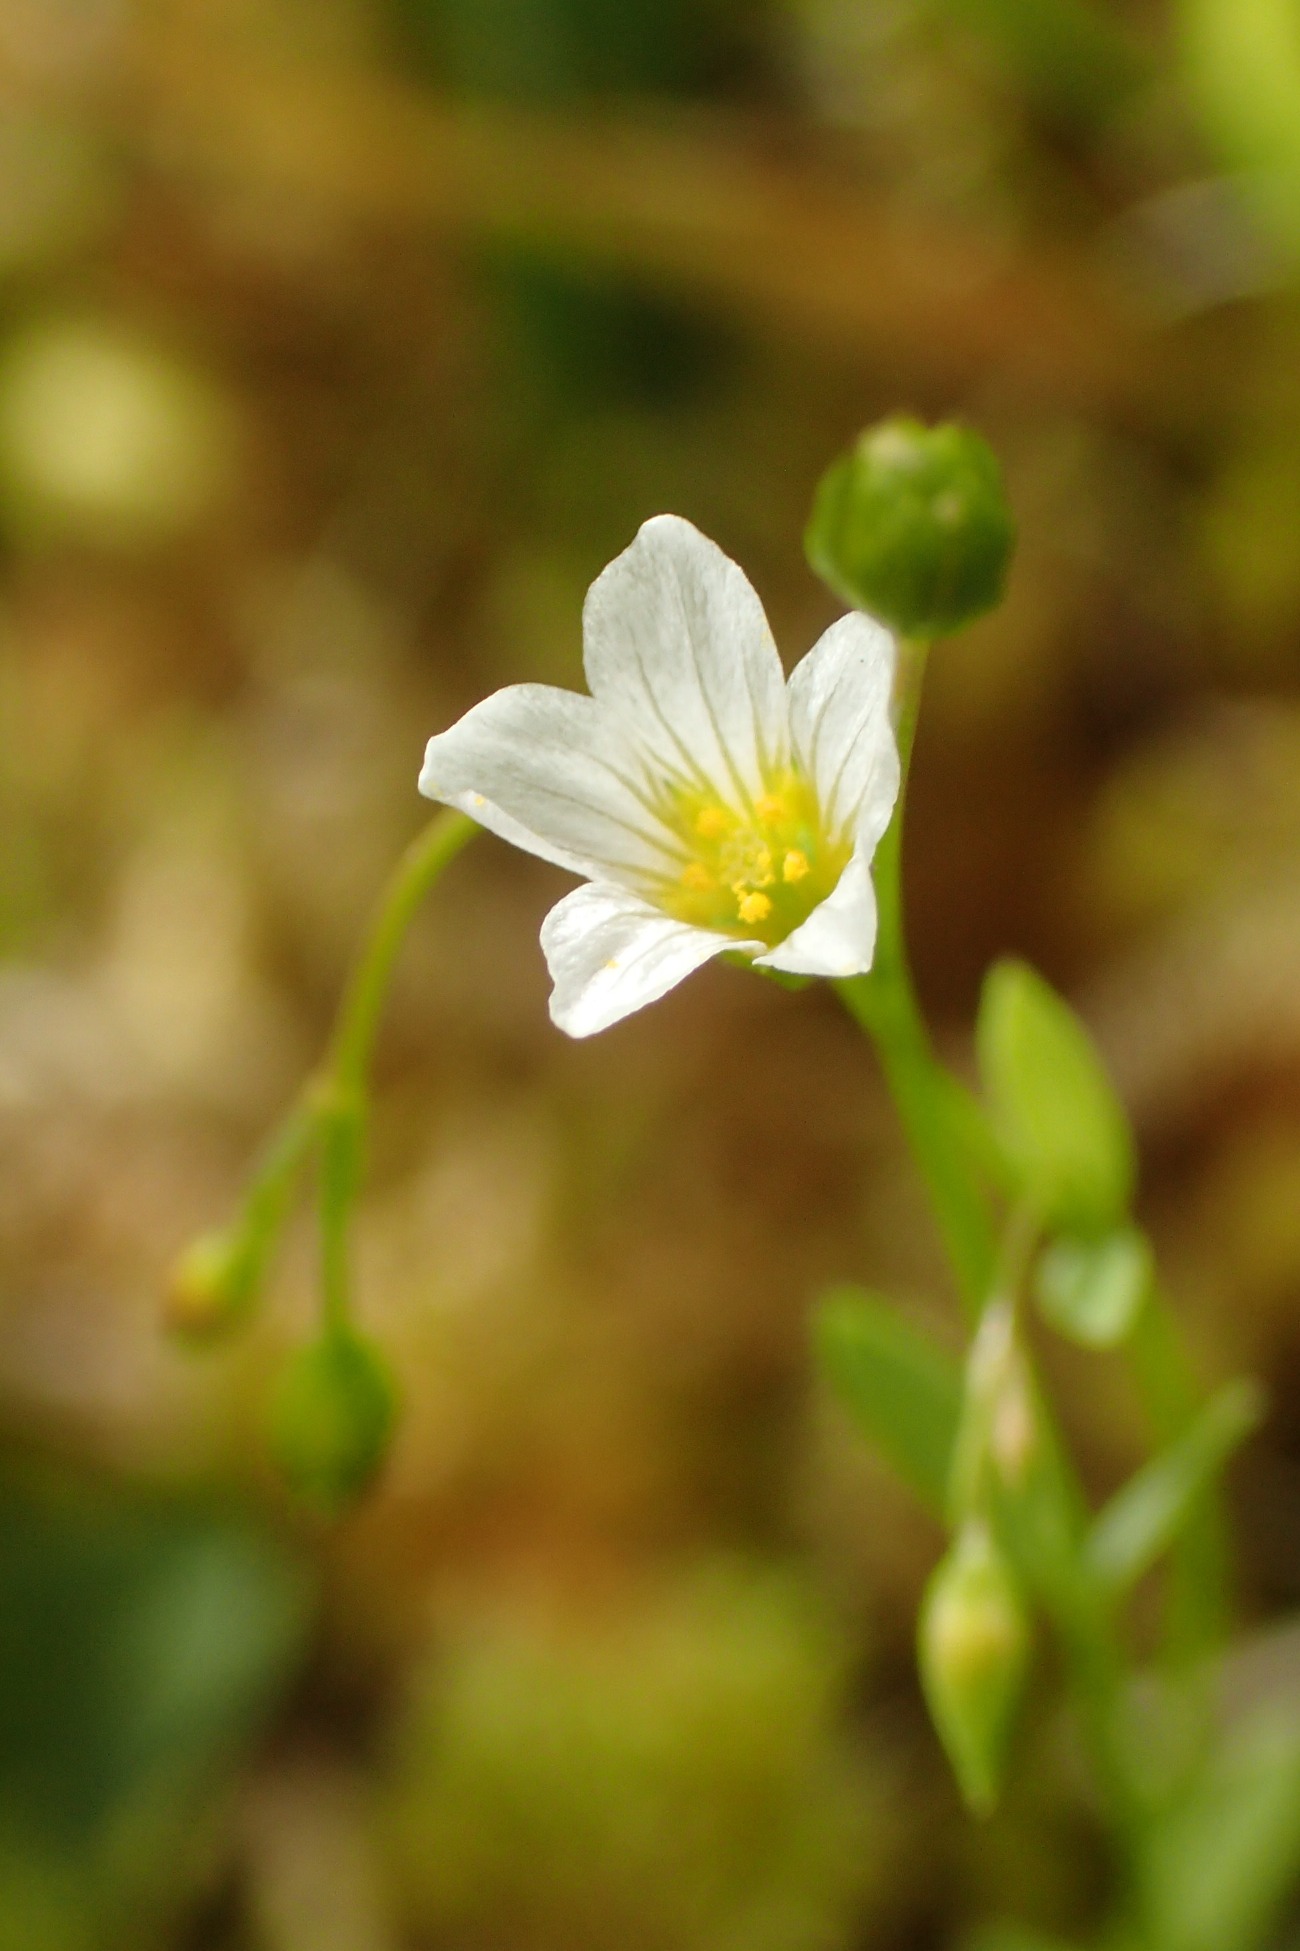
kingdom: Plantae
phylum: Tracheophyta
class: Magnoliopsida
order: Malpighiales
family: Linaceae
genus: Linum
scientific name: Linum catharticum
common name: Vild hør
